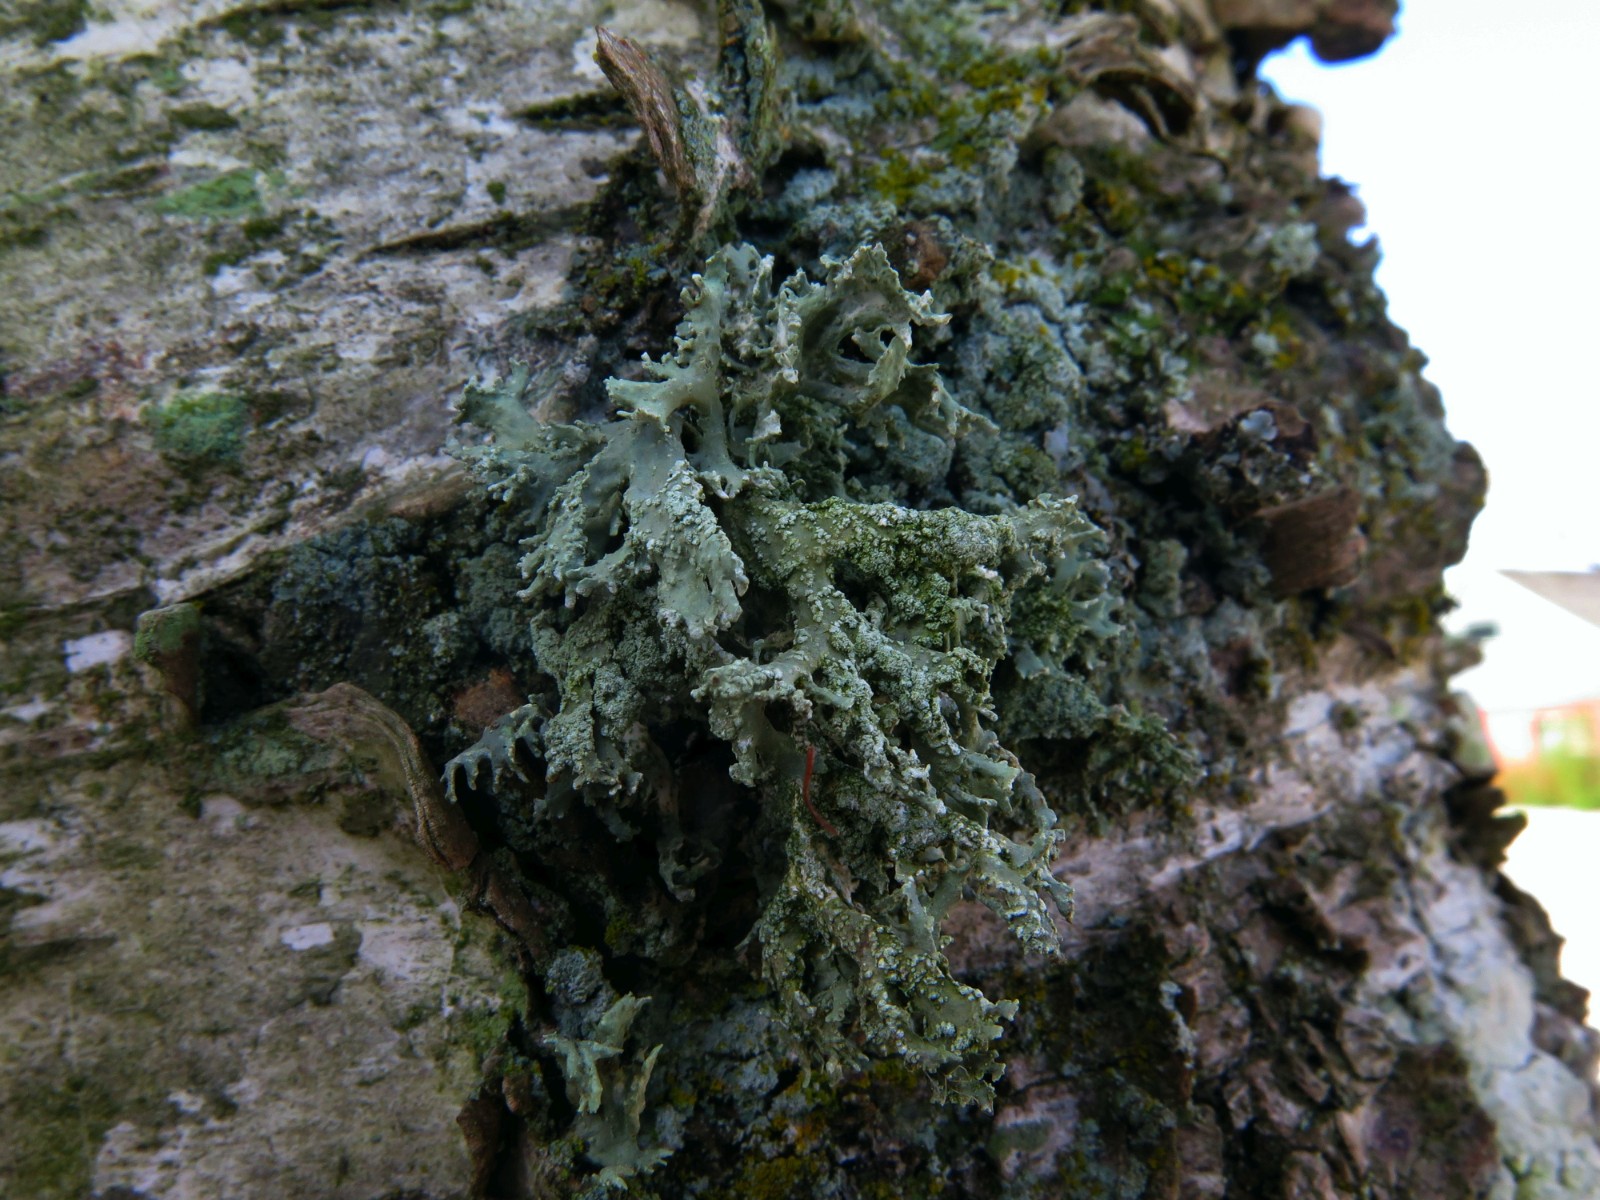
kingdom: Fungi
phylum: Ascomycota
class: Lecanoromycetes
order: Lecanorales
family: Parmeliaceae
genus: Evernia
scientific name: Evernia prunastri
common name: almindelig slåenlav
